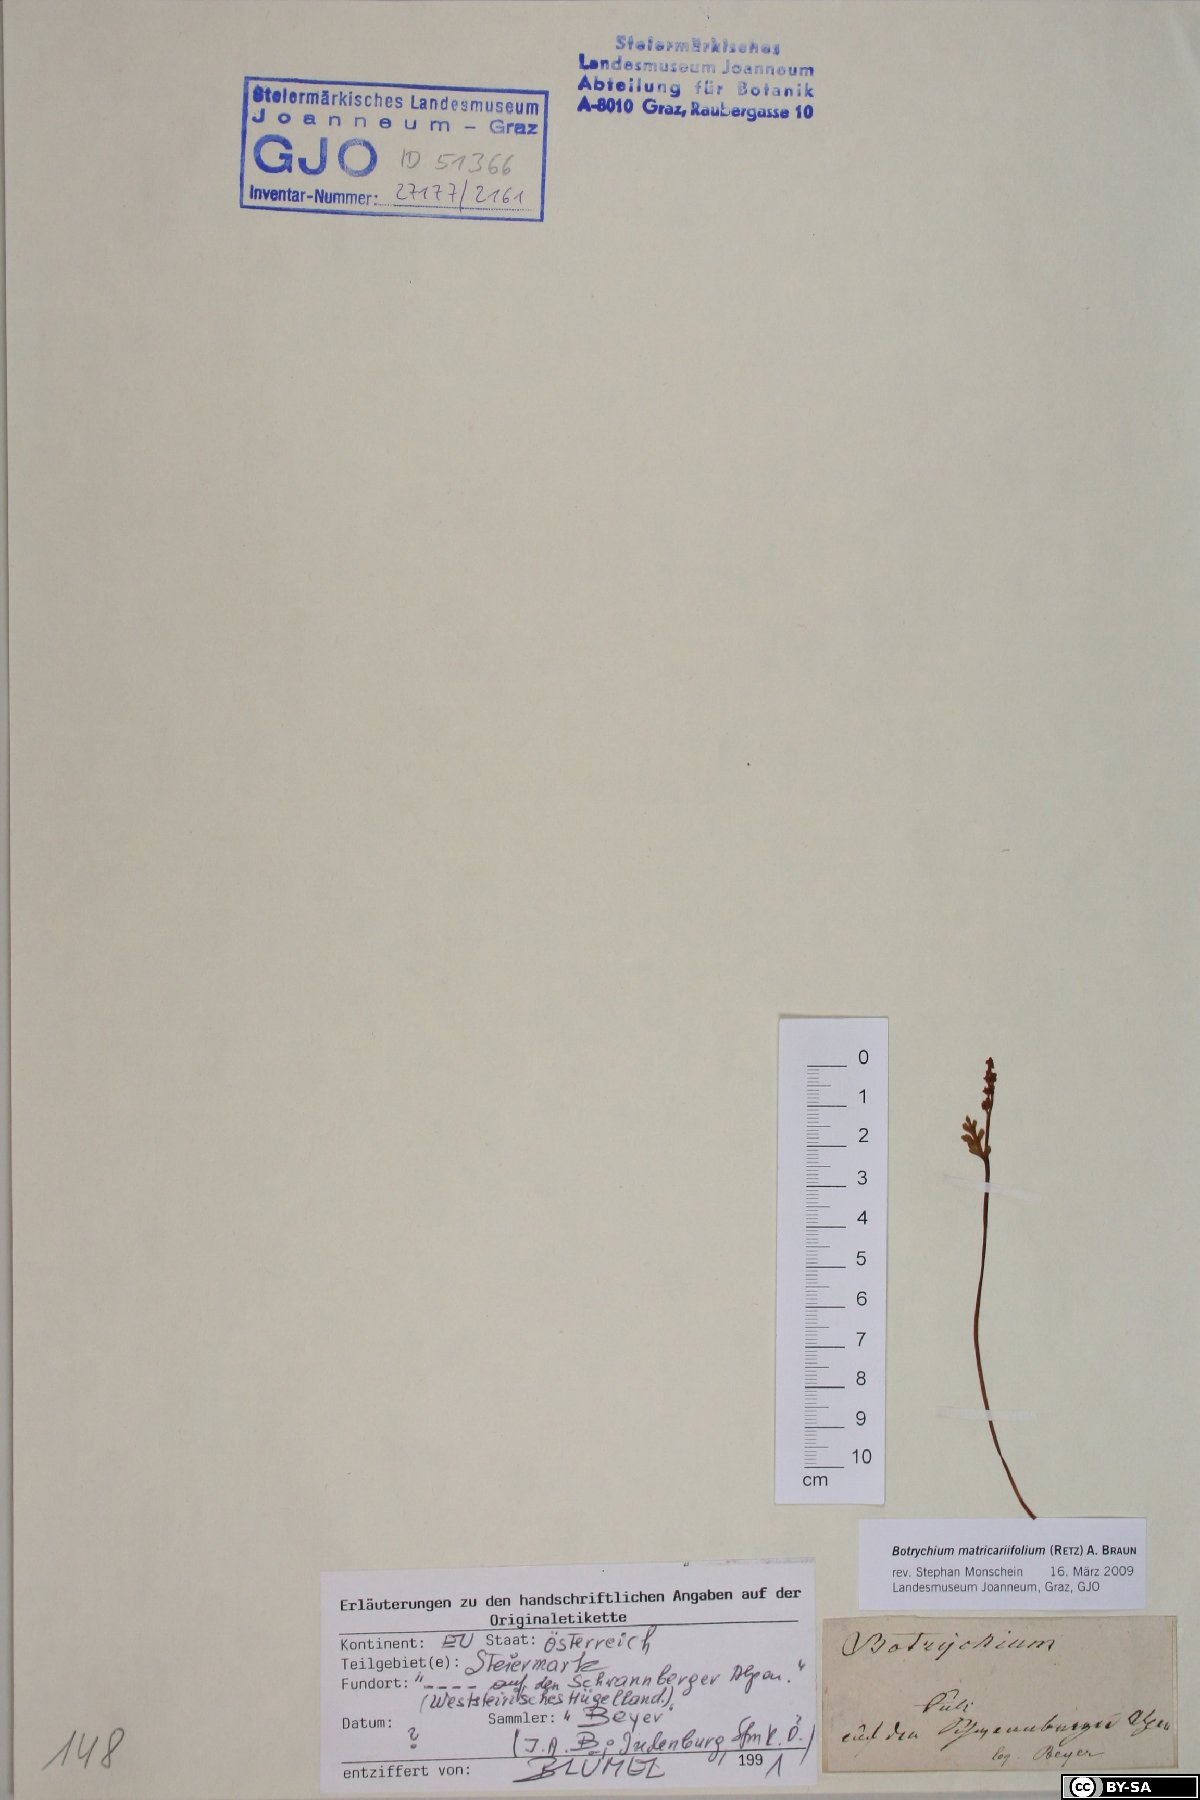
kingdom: Plantae
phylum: Tracheophyta
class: Polypodiopsida
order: Ophioglossales
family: Ophioglossaceae
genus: Botrychium
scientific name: Botrychium matricariifolium
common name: Branched moonwort
